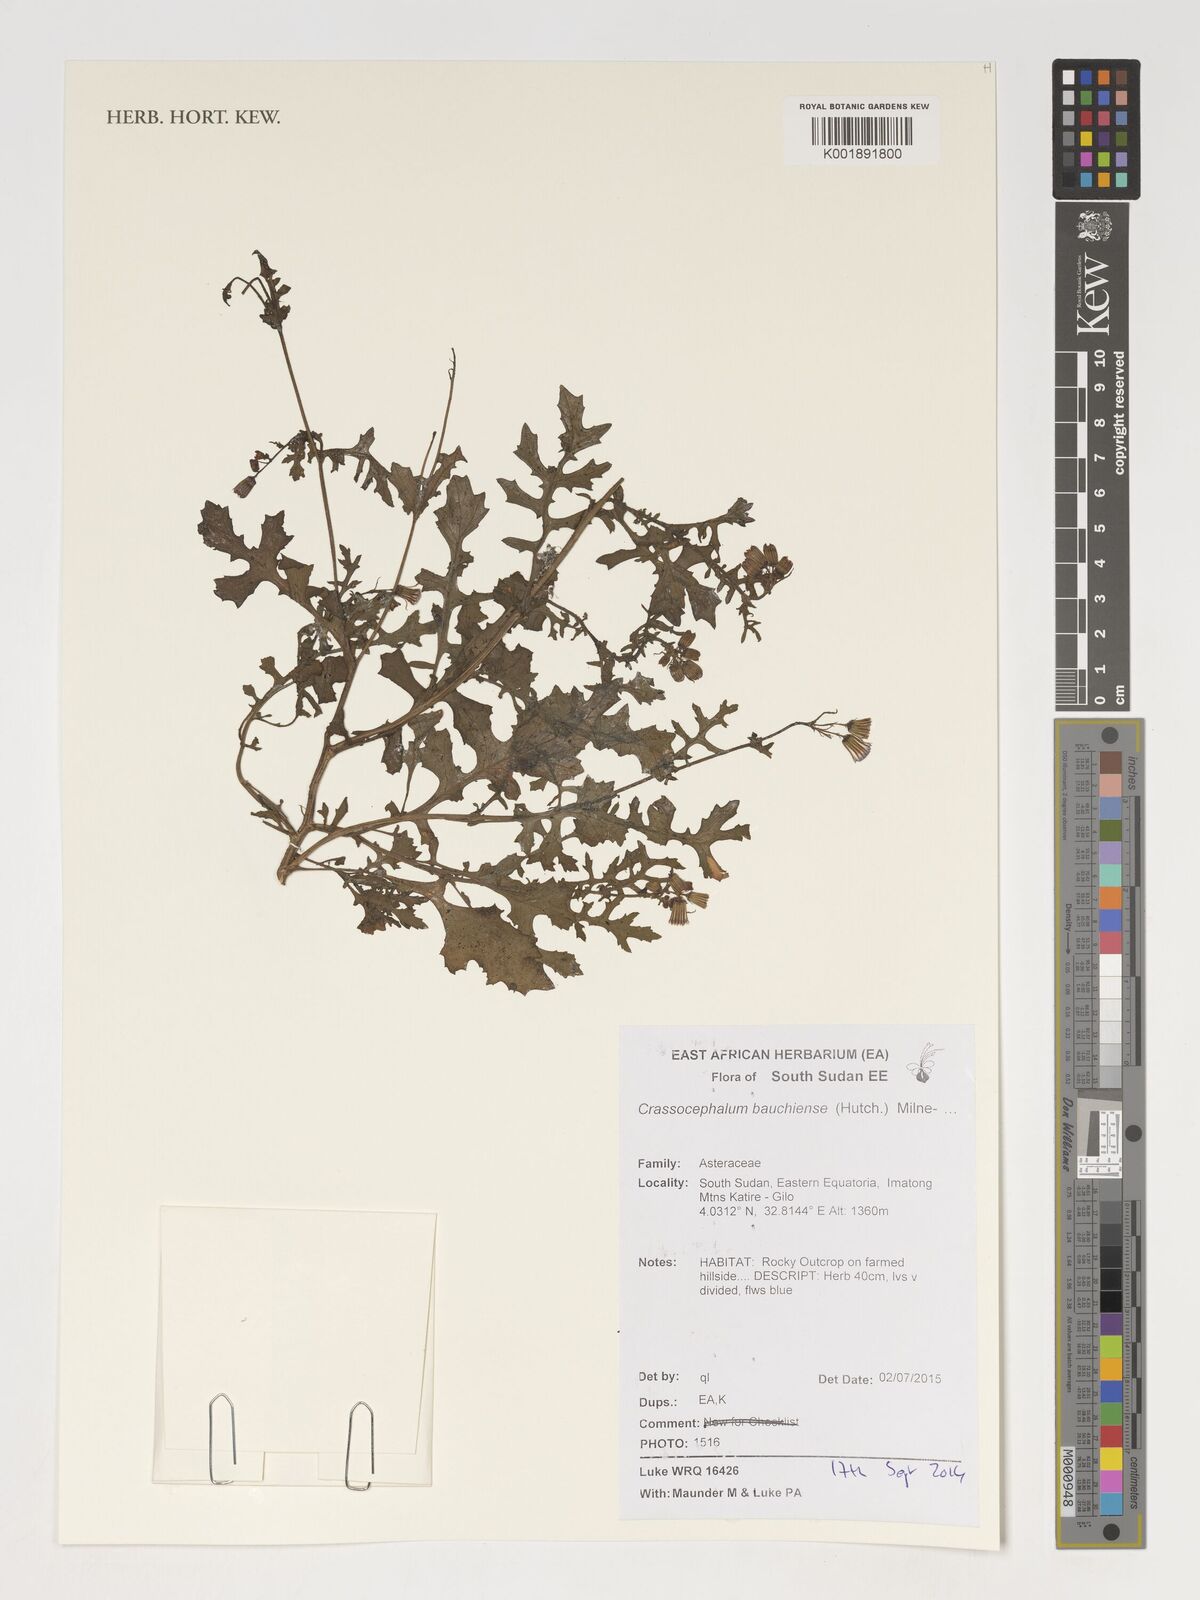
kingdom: Plantae
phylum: Tracheophyta
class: Magnoliopsida
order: Gentianales
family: Rubiaceae
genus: Spermacoce
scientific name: Spermacoce sphaerostigma
